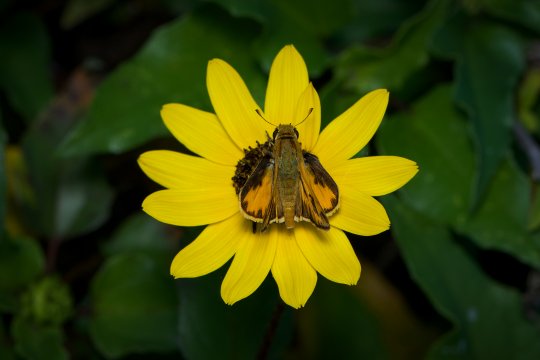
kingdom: Animalia
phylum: Arthropoda
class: Insecta
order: Lepidoptera
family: Hesperiidae
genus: Hylephila
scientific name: Hylephila phyleus
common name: Fiery Skipper
